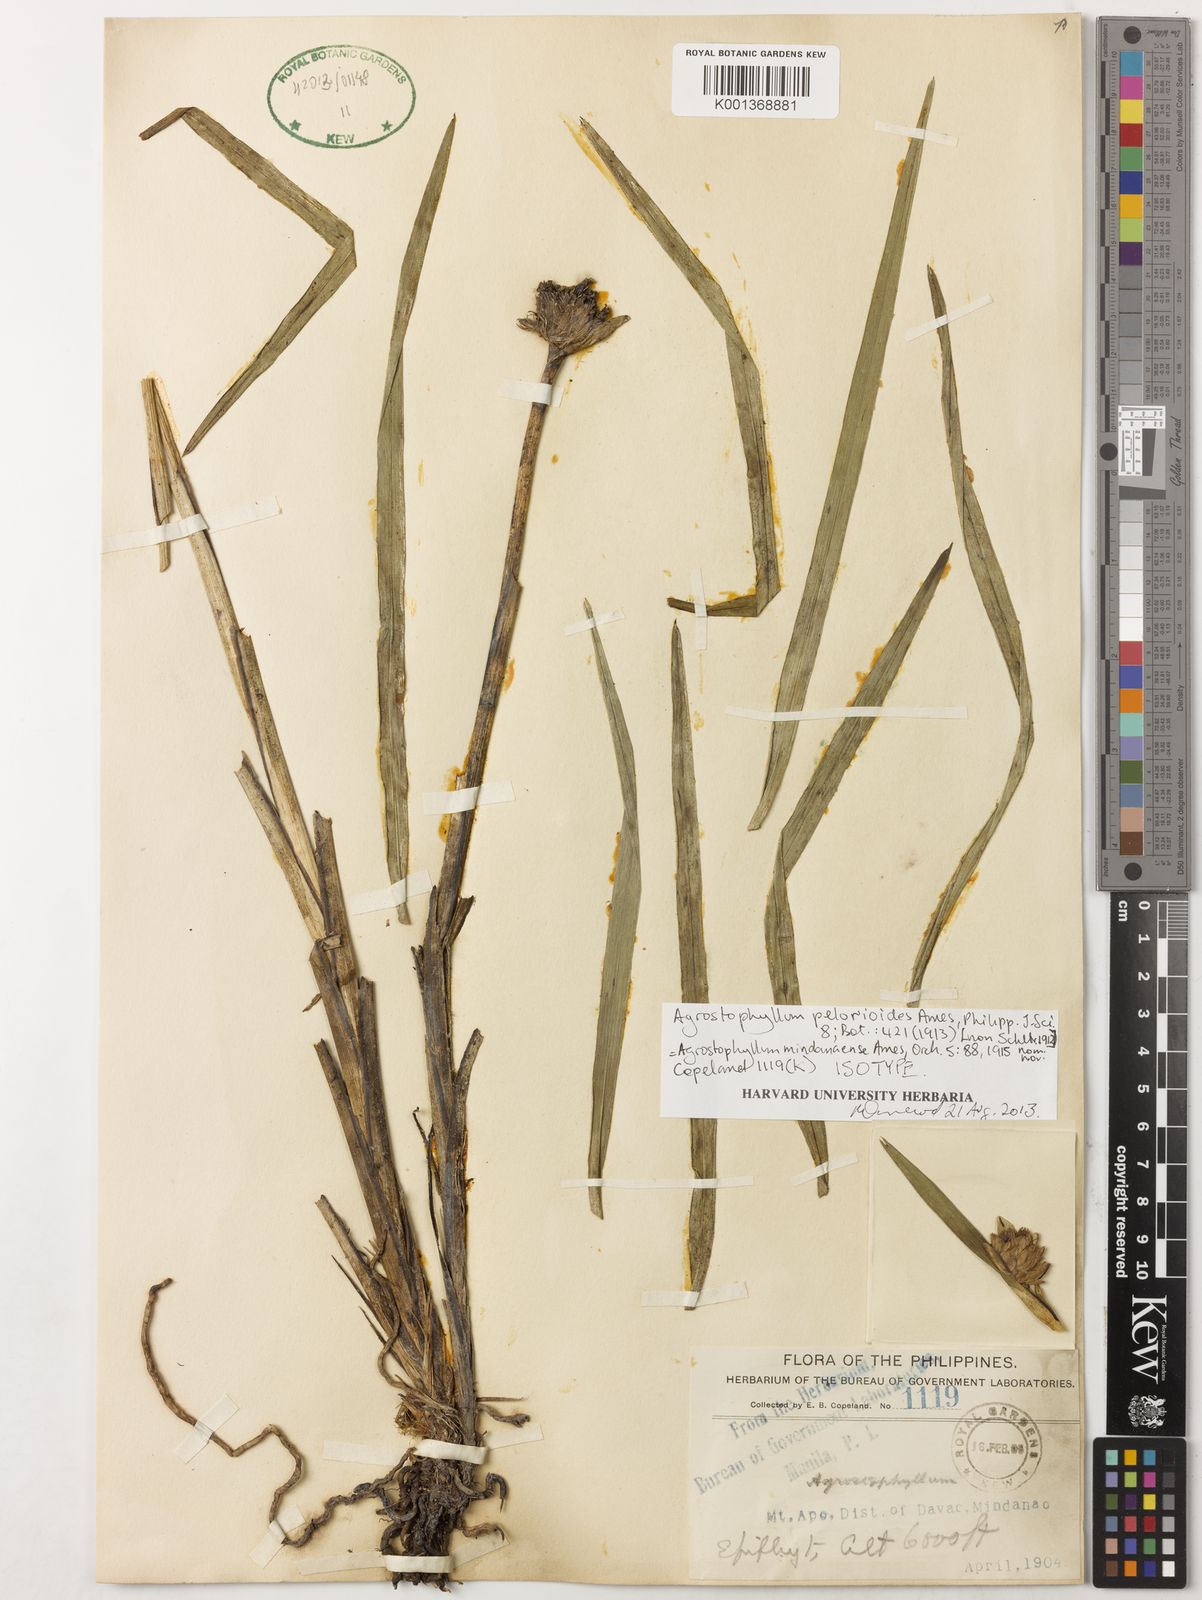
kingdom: Plantae
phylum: Tracheophyta
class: Liliopsida
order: Asparagales
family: Orchidaceae
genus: Agrostophyllum
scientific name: Agrostophyllum mindanense
